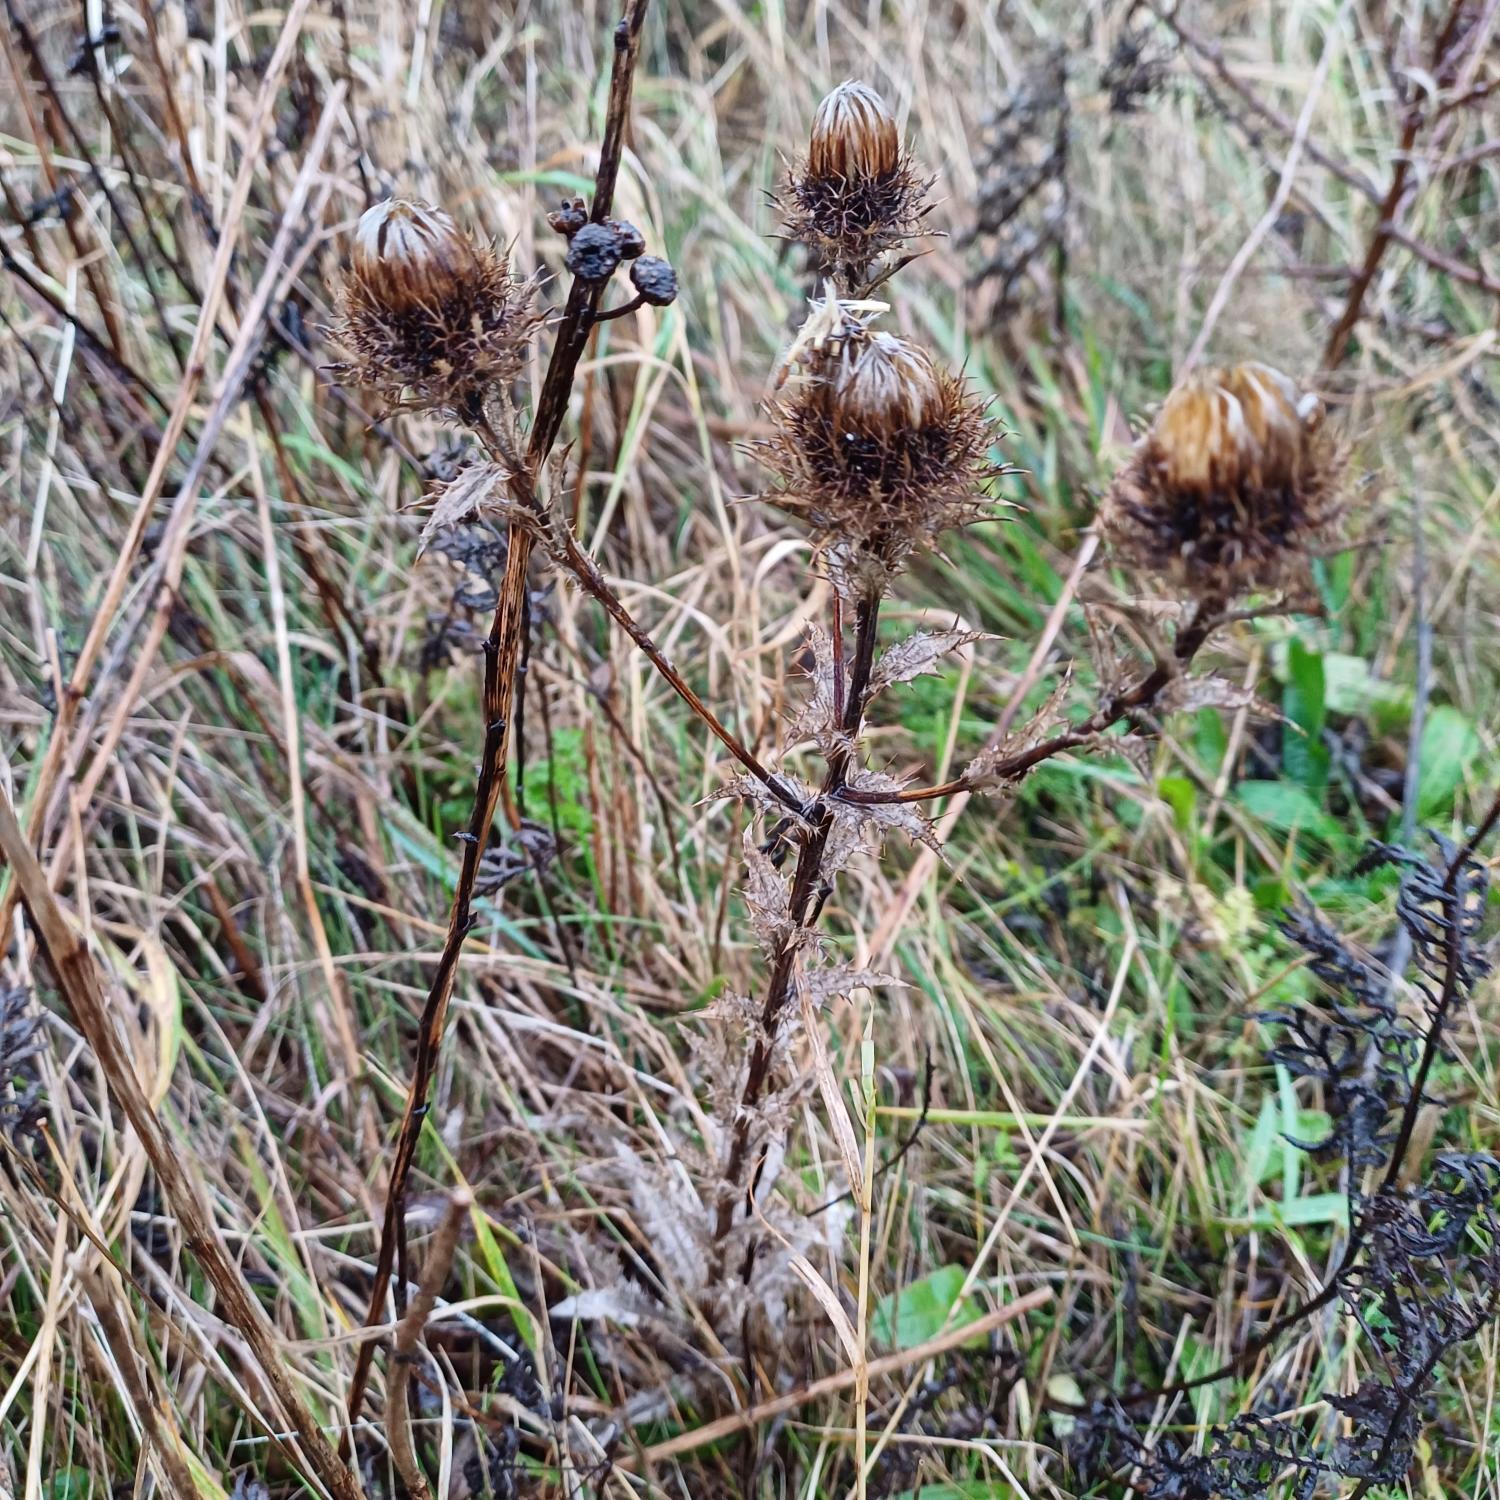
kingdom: Plantae
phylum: Tracheophyta
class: Magnoliopsida
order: Asterales
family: Asteraceae
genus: Carlina
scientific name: Carlina vulgaris
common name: Bakketidsel
